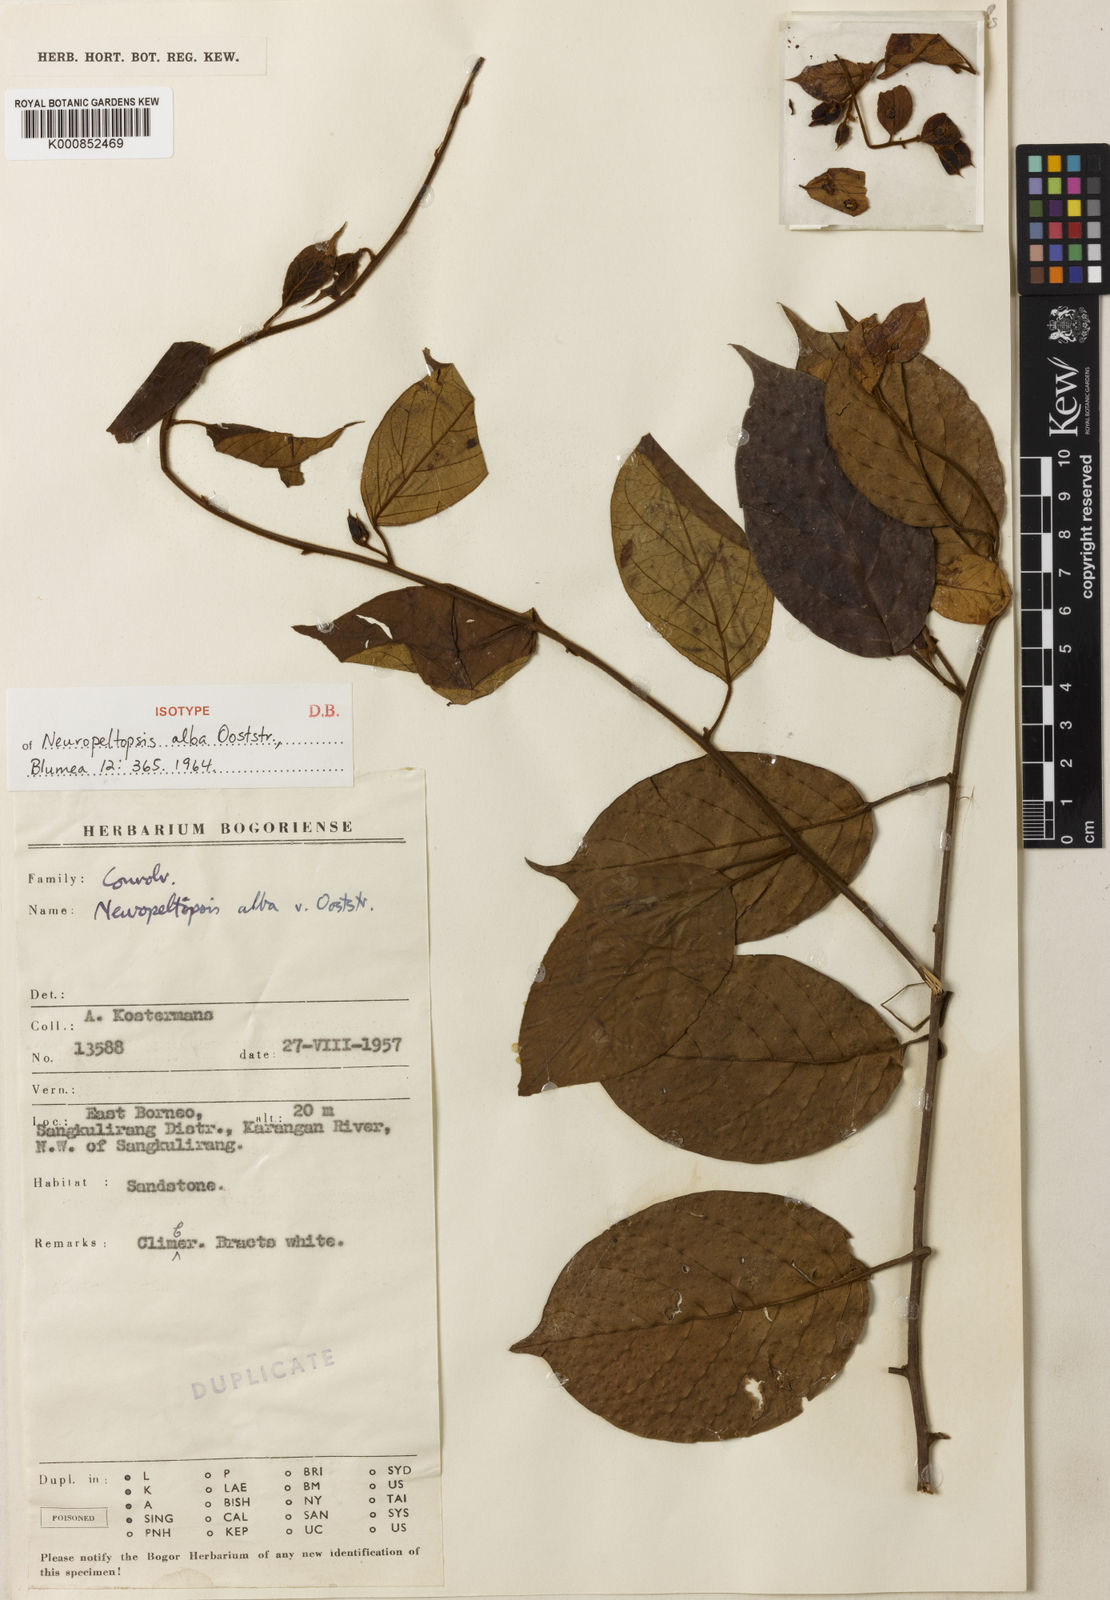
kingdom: Plantae
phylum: Tracheophyta
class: Magnoliopsida
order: Solanales
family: Convolvulaceae
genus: Neuropeltopsis
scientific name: Neuropeltopsis alba
